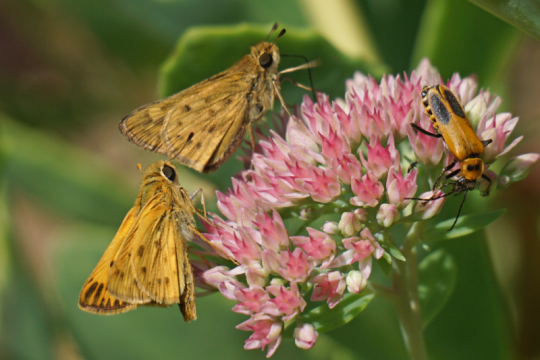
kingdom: Animalia
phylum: Arthropoda
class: Insecta
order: Lepidoptera
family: Hesperiidae
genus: Hylephila
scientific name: Hylephila phyleus
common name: Fiery Skipper
